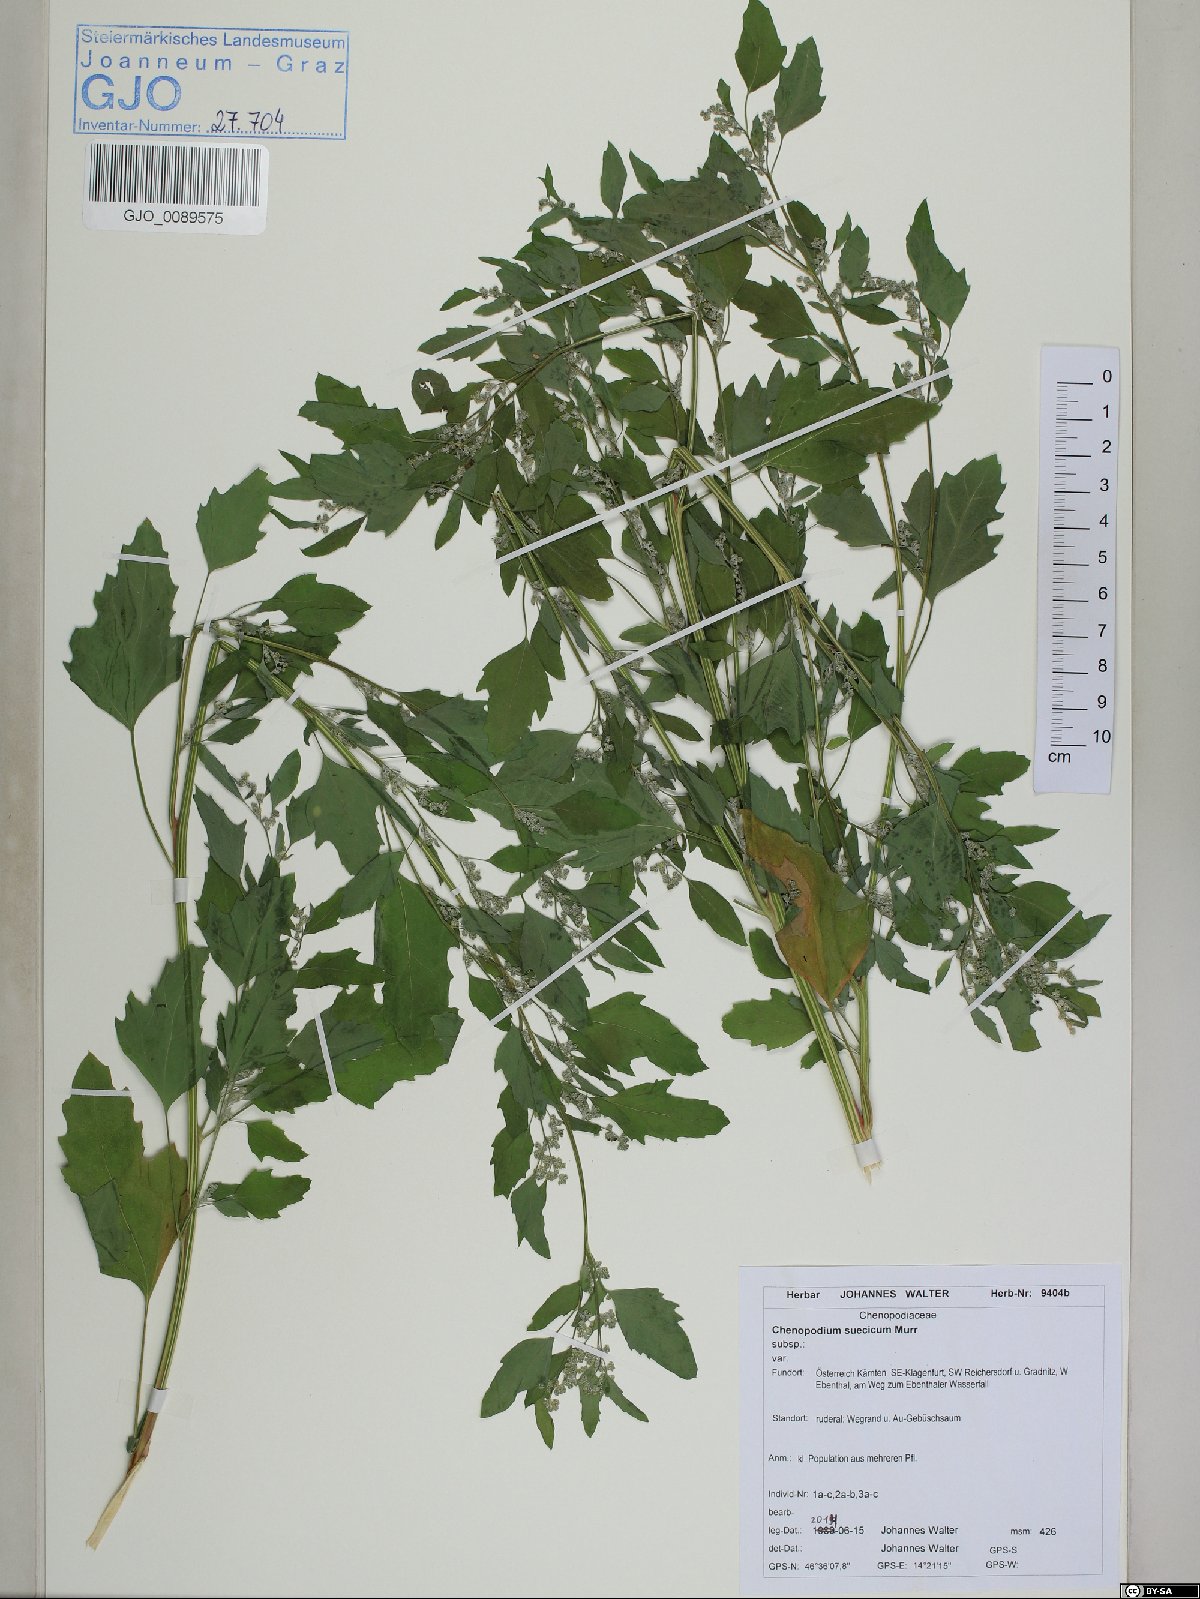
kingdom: Plantae
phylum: Tracheophyta
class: Magnoliopsida
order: Caryophyllales
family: Amaranthaceae
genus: Chenopodium
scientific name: Chenopodium suecicum
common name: Swedish goosefoot
